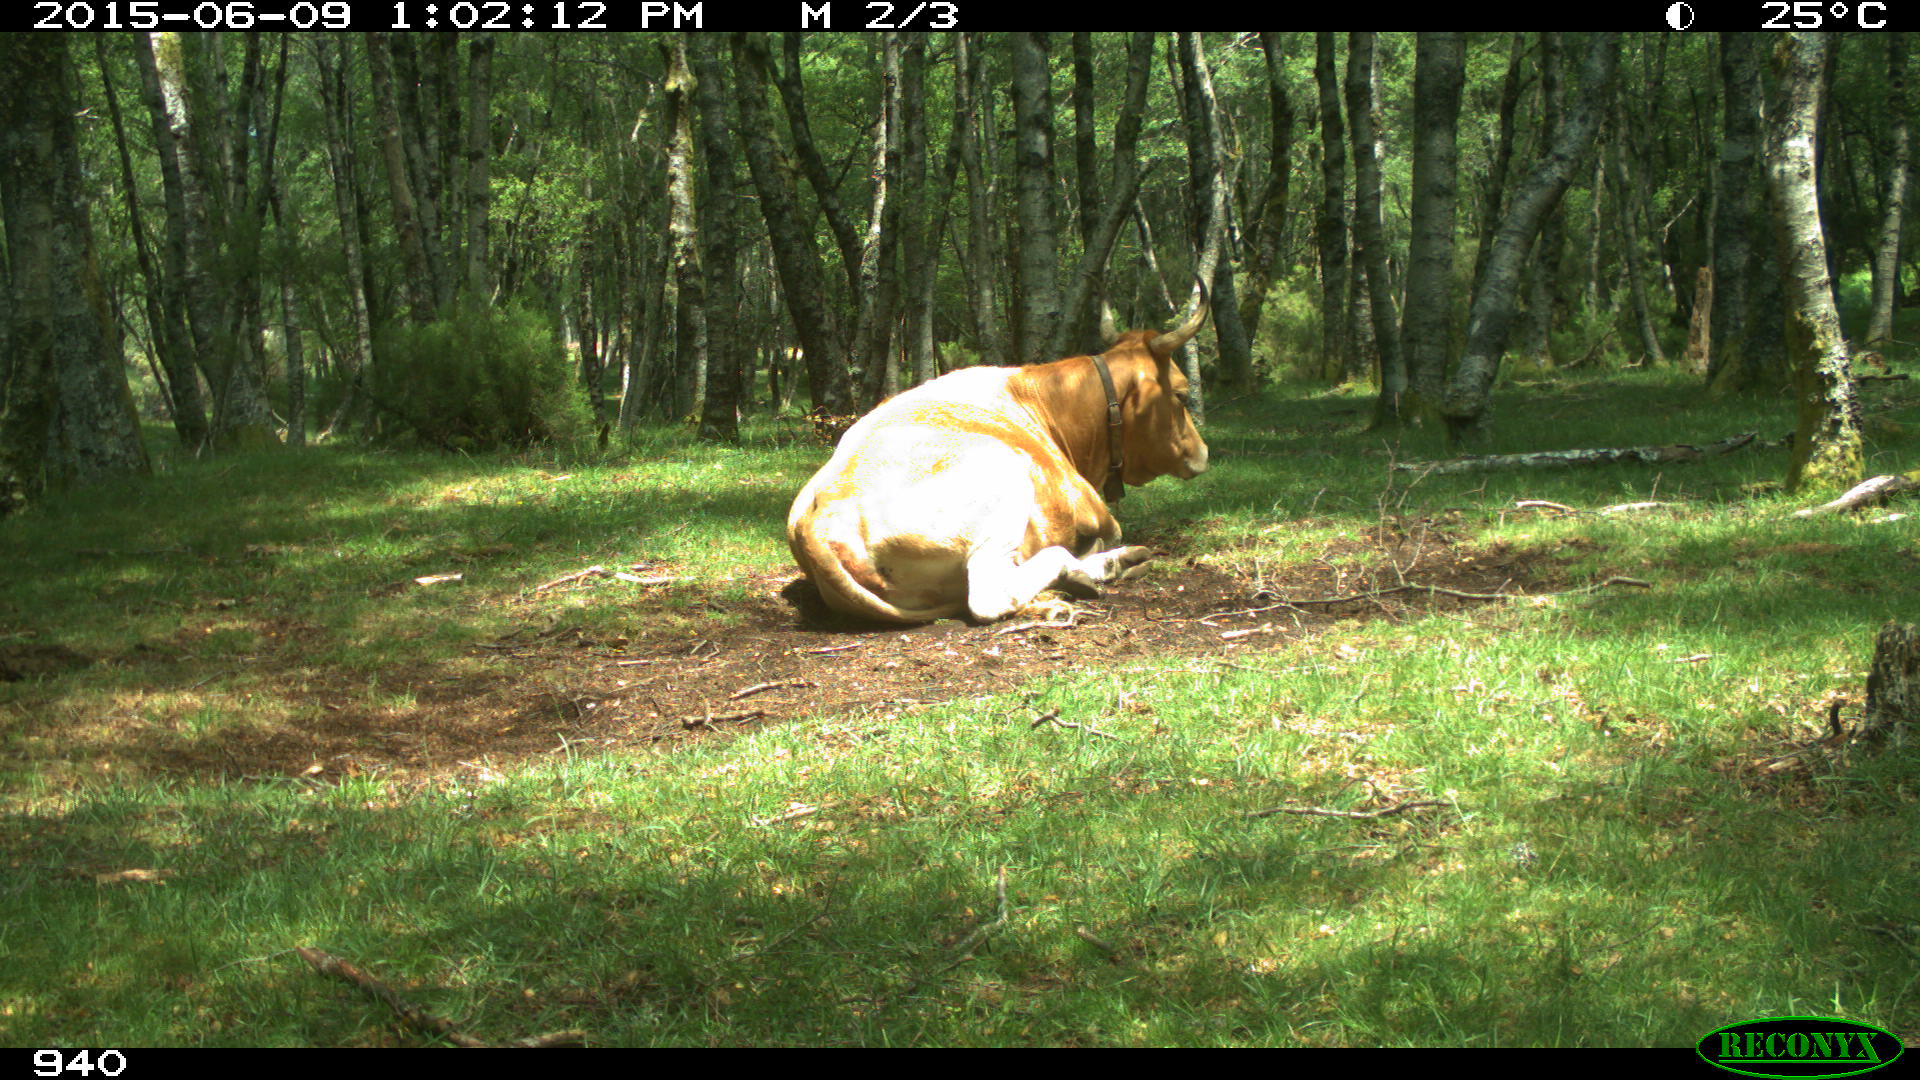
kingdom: Animalia
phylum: Chordata
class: Mammalia
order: Artiodactyla
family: Bovidae
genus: Bos
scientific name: Bos taurus
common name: Domesticated cattle
